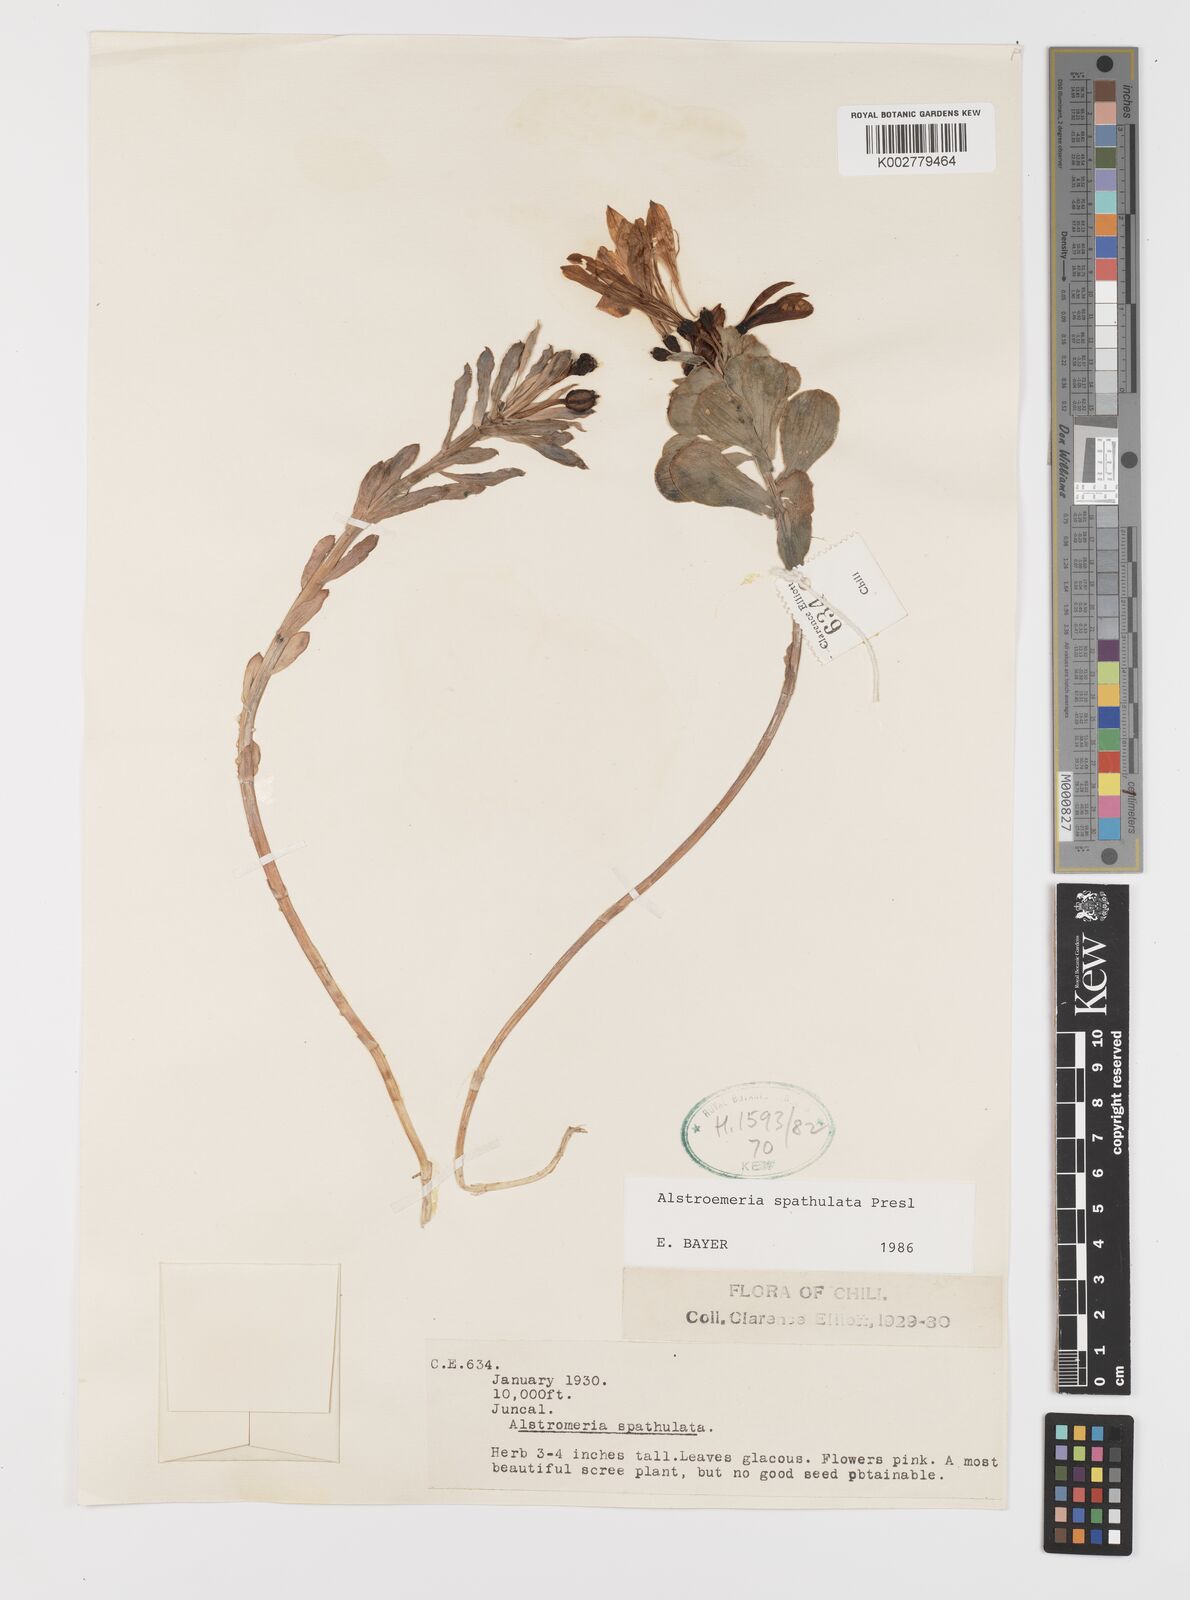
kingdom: Plantae
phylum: Tracheophyta
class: Liliopsida
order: Liliales
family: Alstroemeriaceae
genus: Alstroemeria
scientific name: Alstroemeria spathulata
